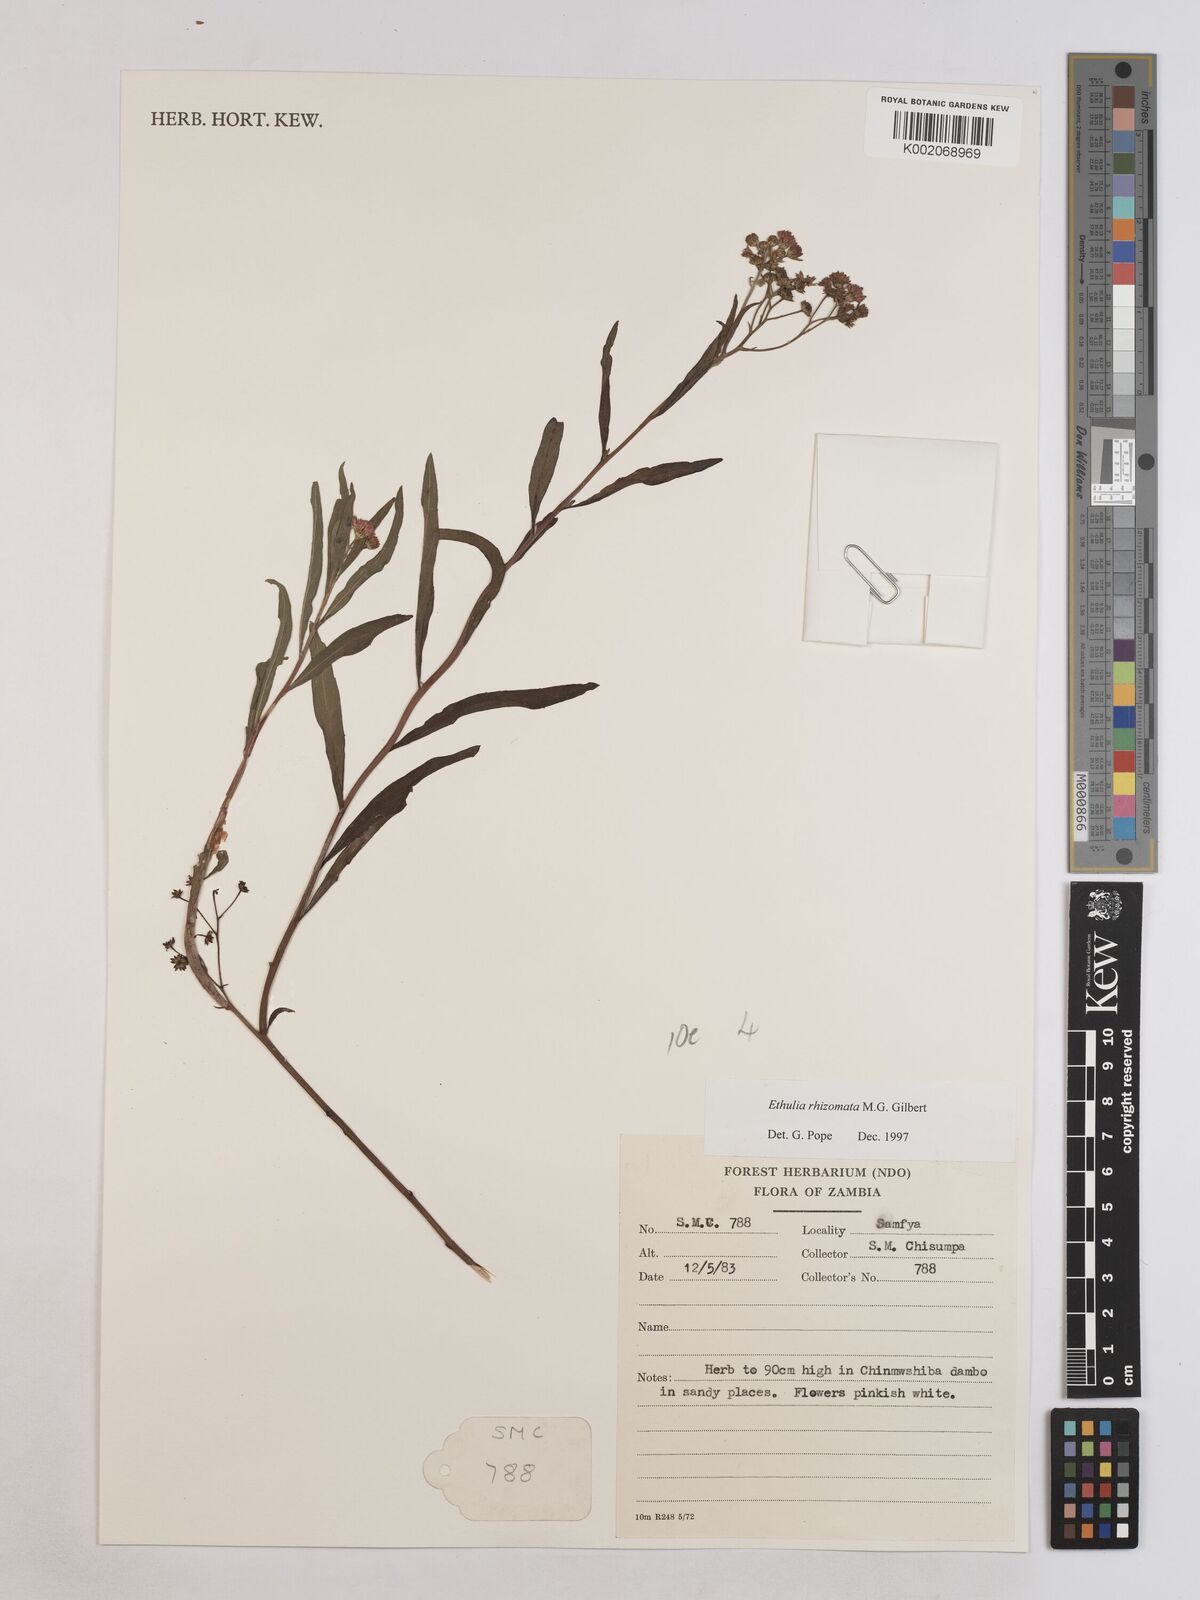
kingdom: Plantae
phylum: Tracheophyta
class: Magnoliopsida
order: Asterales
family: Asteraceae
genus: Ethulia
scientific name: Ethulia rhizomata
